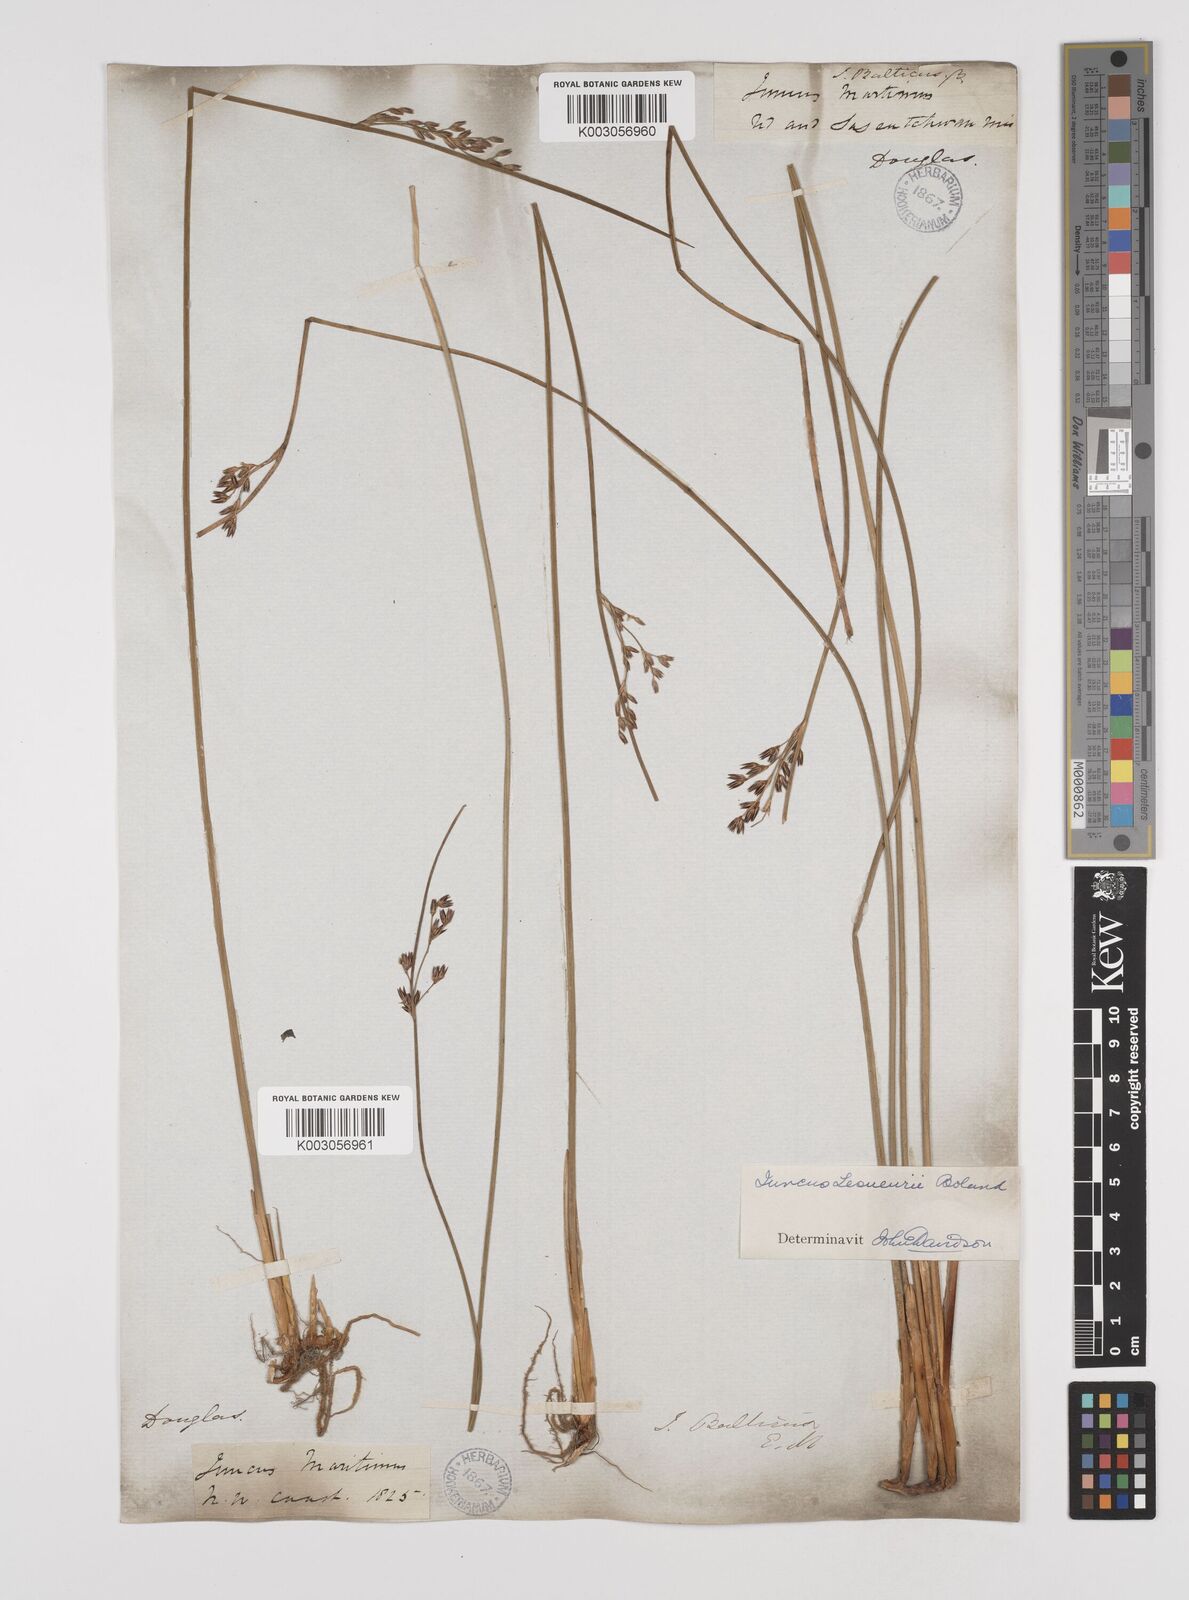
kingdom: Plantae
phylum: Tracheophyta
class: Liliopsida
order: Poales
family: Juncaceae
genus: Juncus
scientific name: Juncus lesueurii
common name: Lesueur's rush
